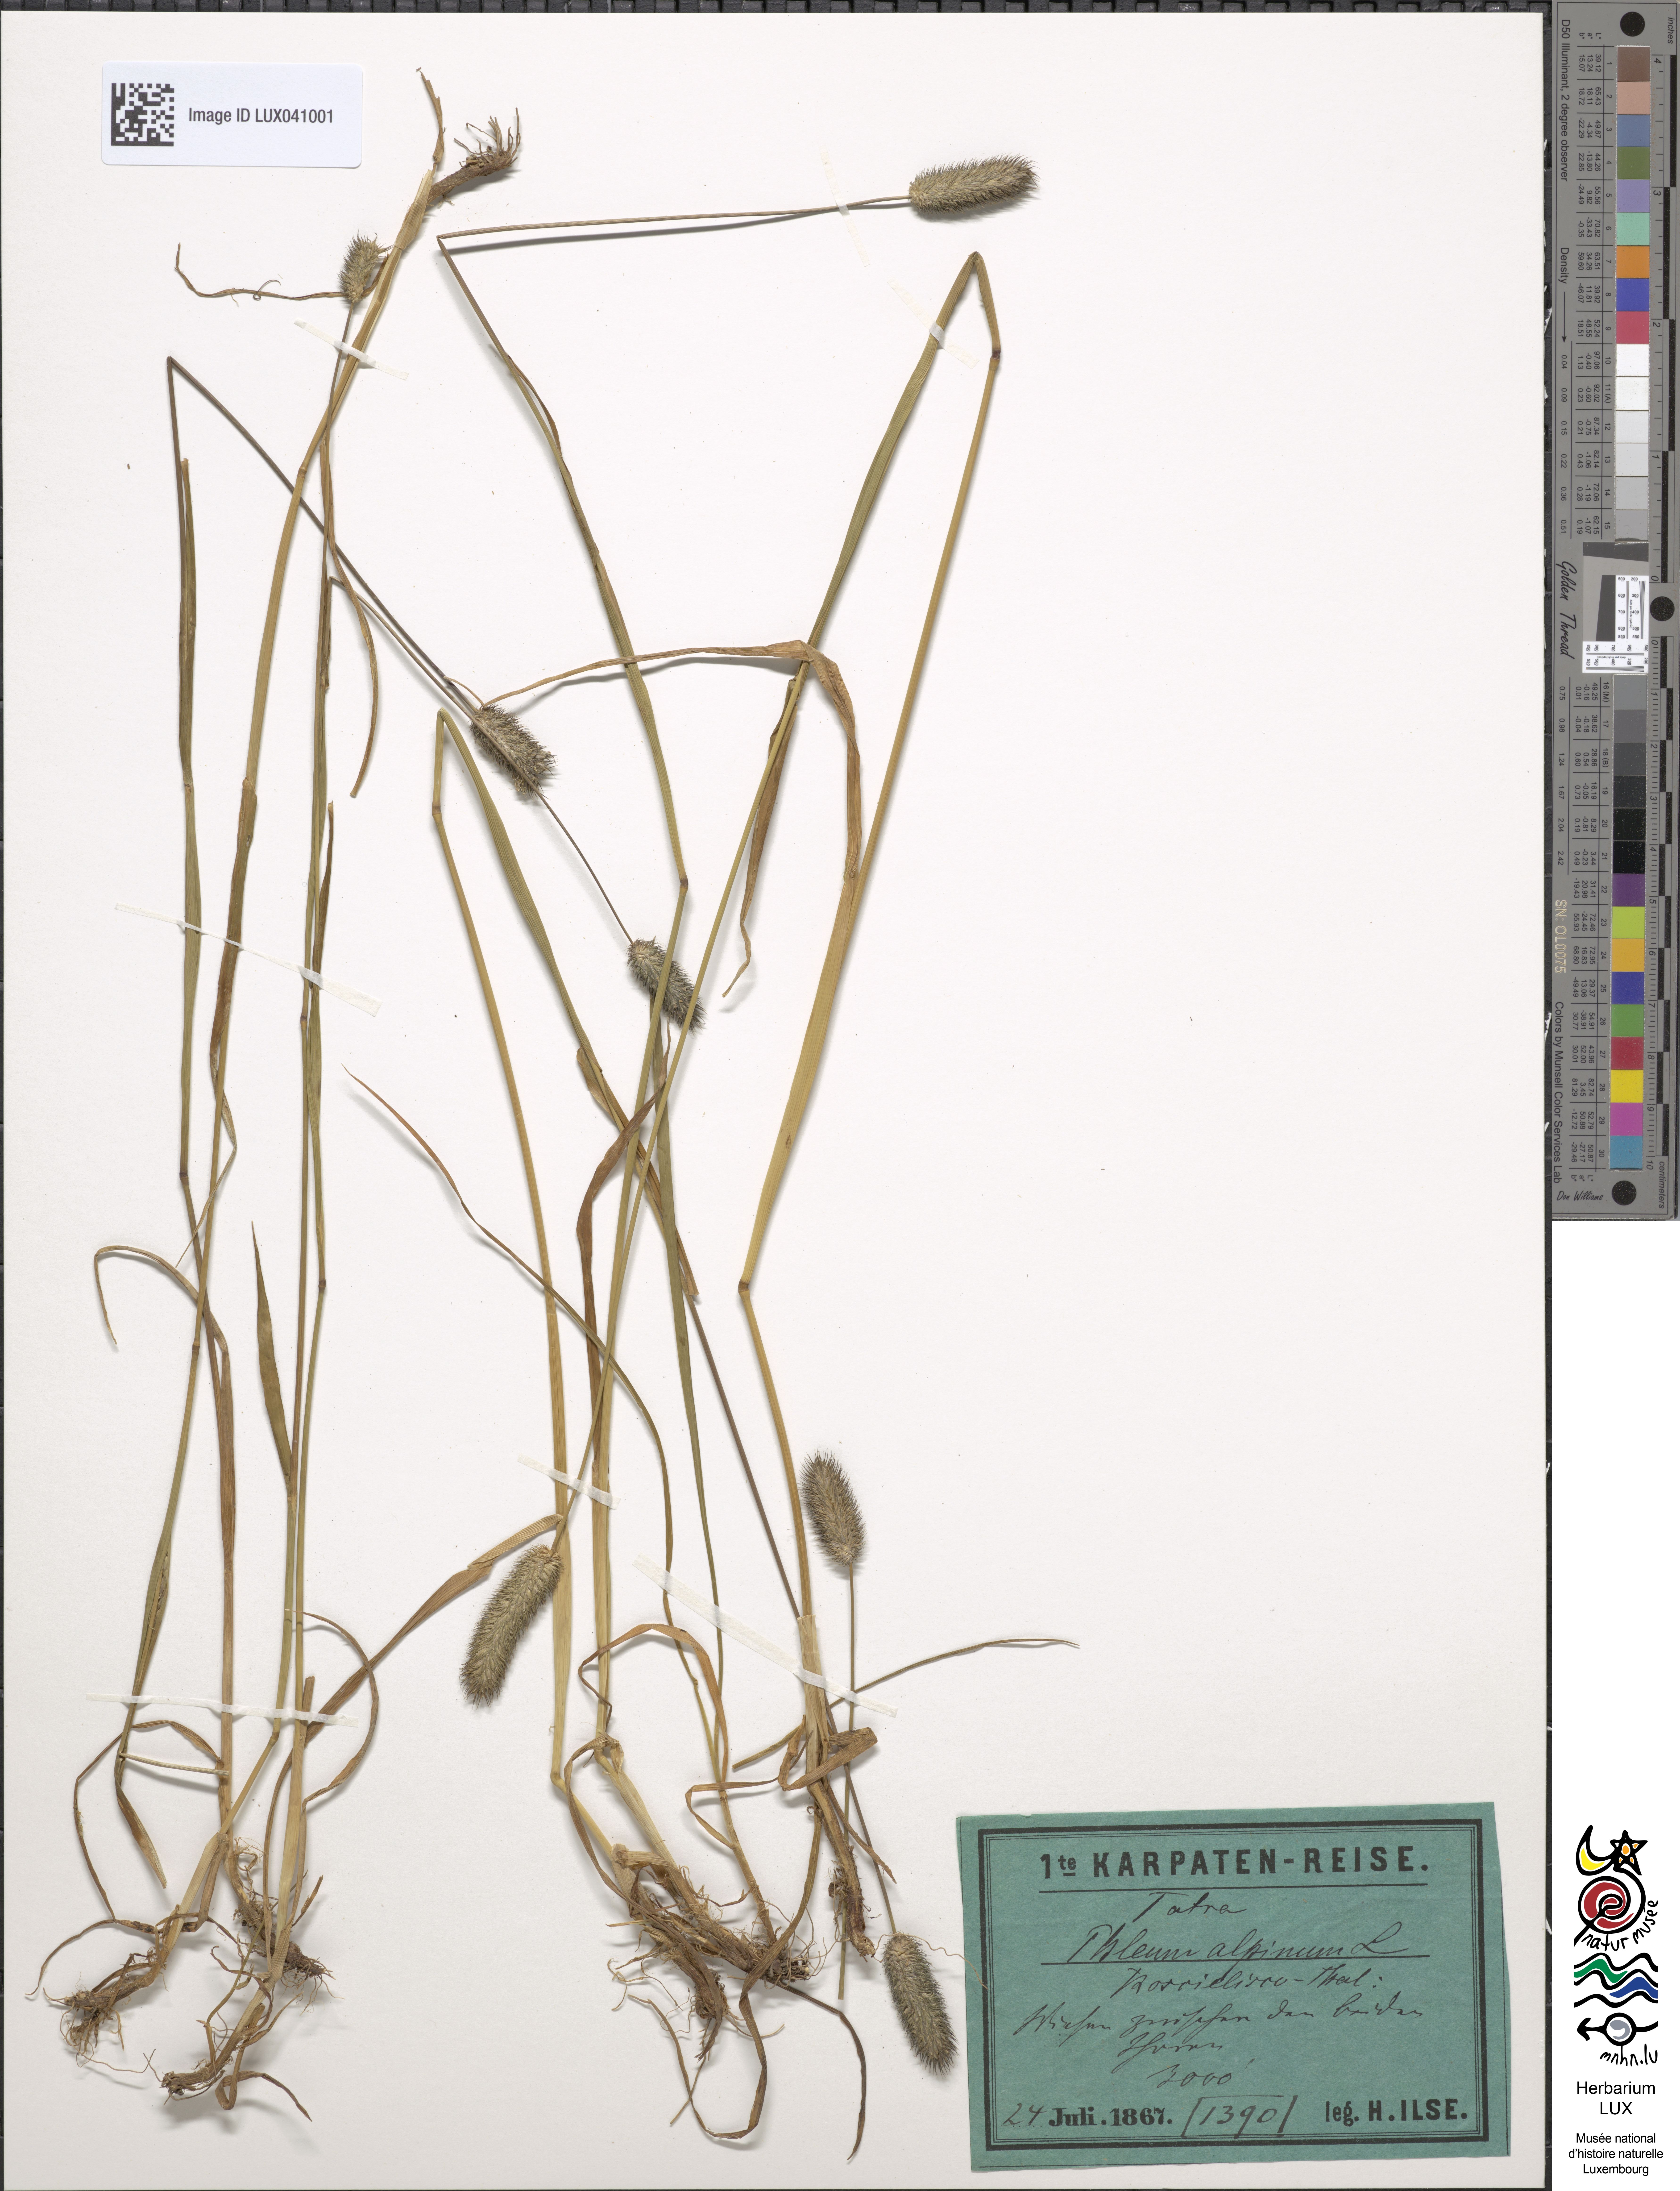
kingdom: Plantae
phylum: Tracheophyta
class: Liliopsida
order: Poales
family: Poaceae
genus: Phleum
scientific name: Phleum alpinum
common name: Alpine cat's-tail
